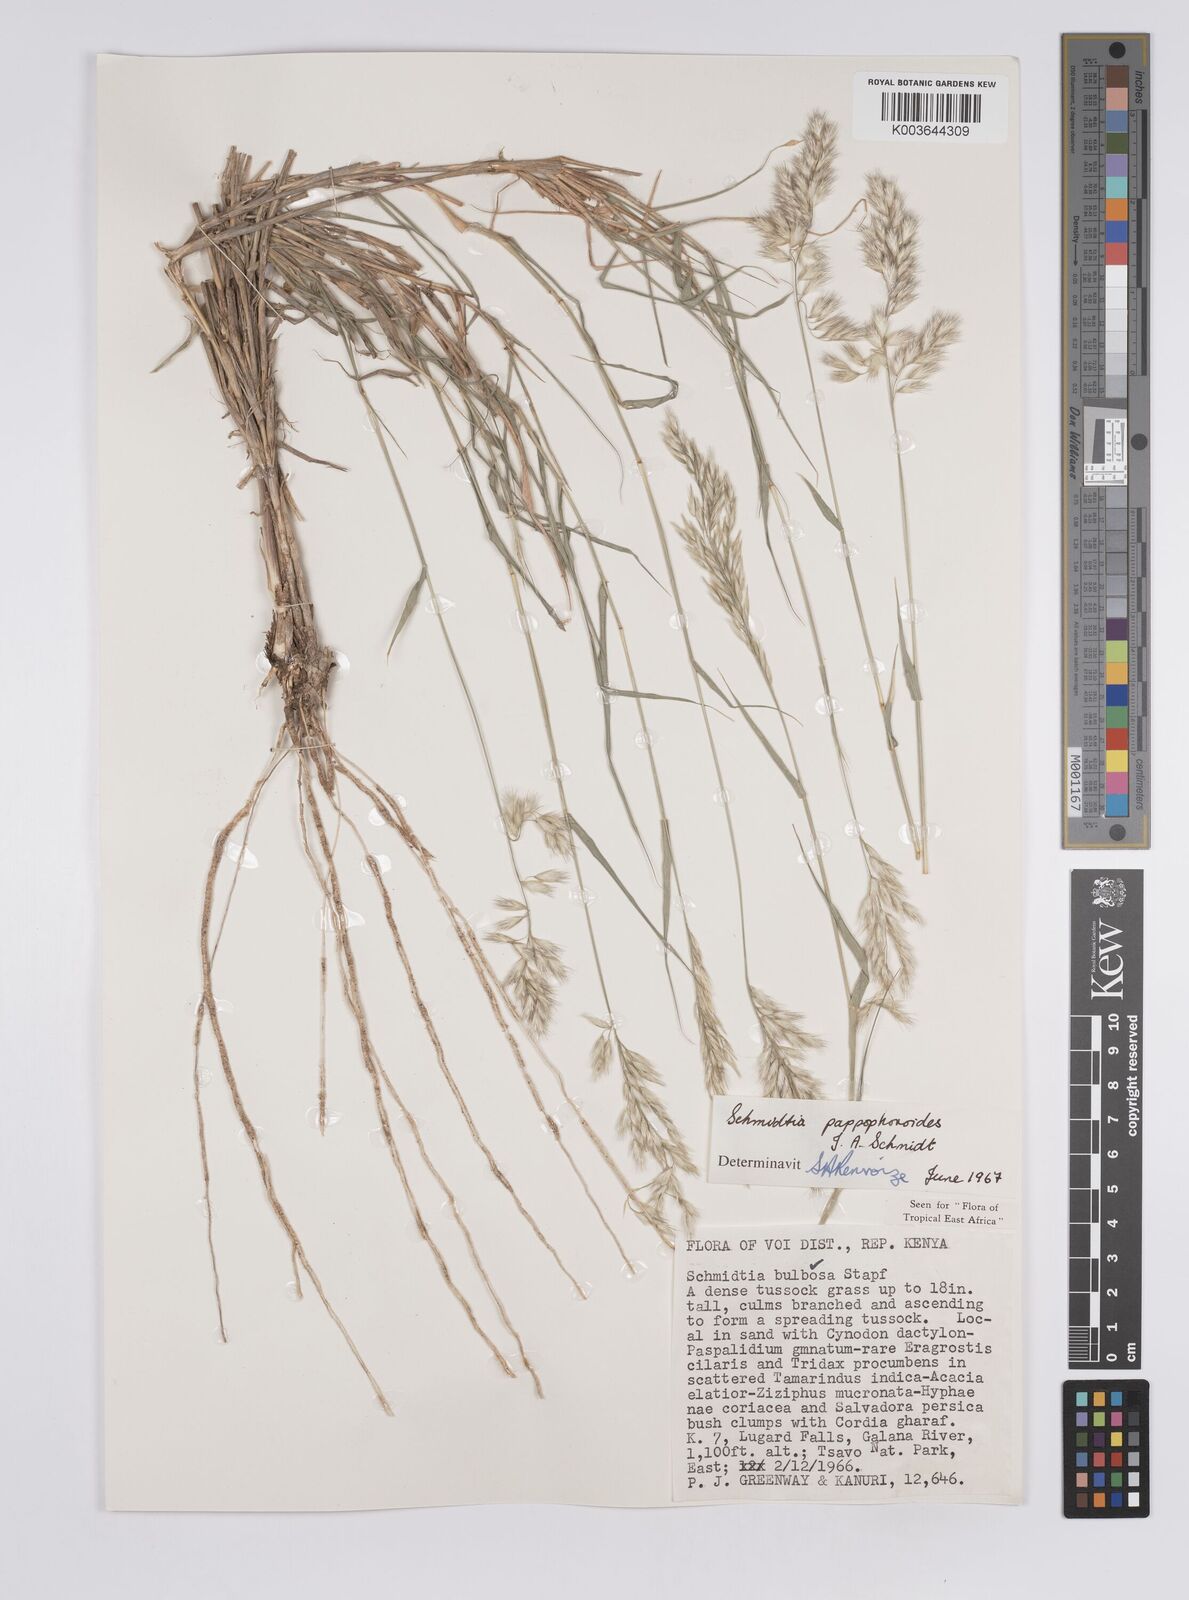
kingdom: Plantae
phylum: Tracheophyta
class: Liliopsida
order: Poales
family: Poaceae
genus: Schmidtia
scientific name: Schmidtia pappophoroides
